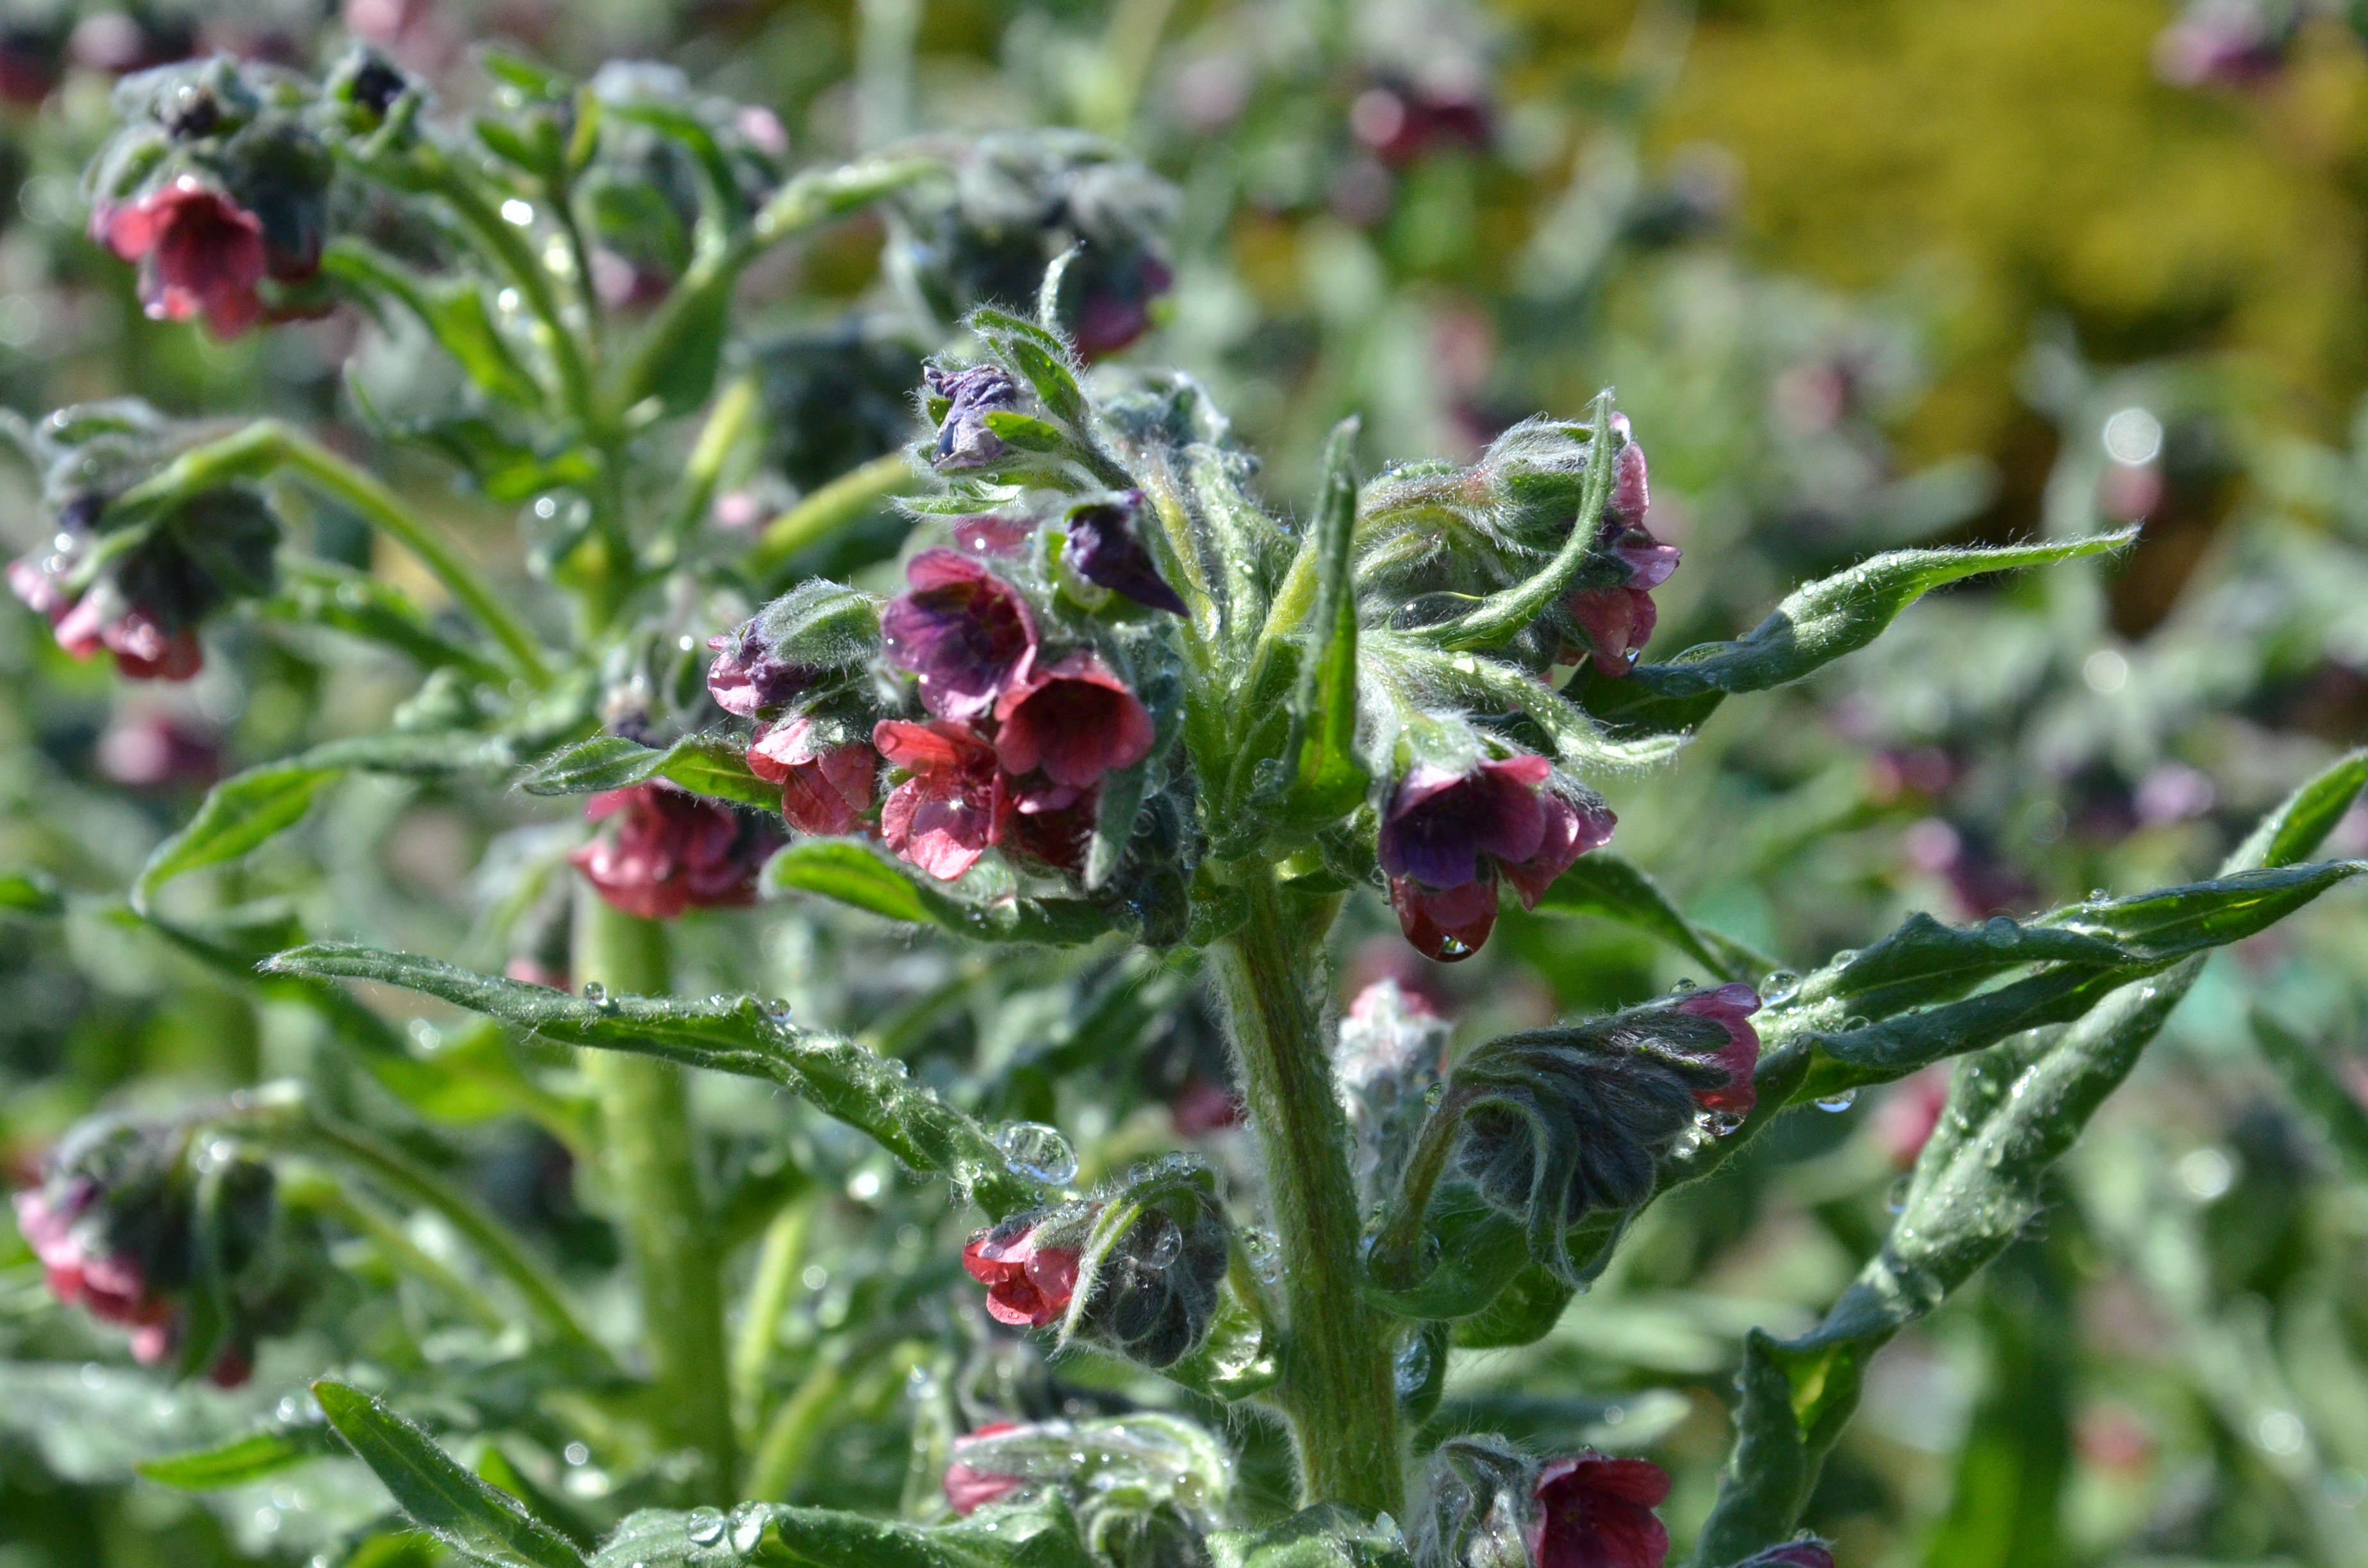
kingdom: Plantae
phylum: Tracheophyta
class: Magnoliopsida
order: Boraginales
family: Boraginaceae
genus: Cynoglossum
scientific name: Cynoglossum officinale
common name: Hound's-tongue
